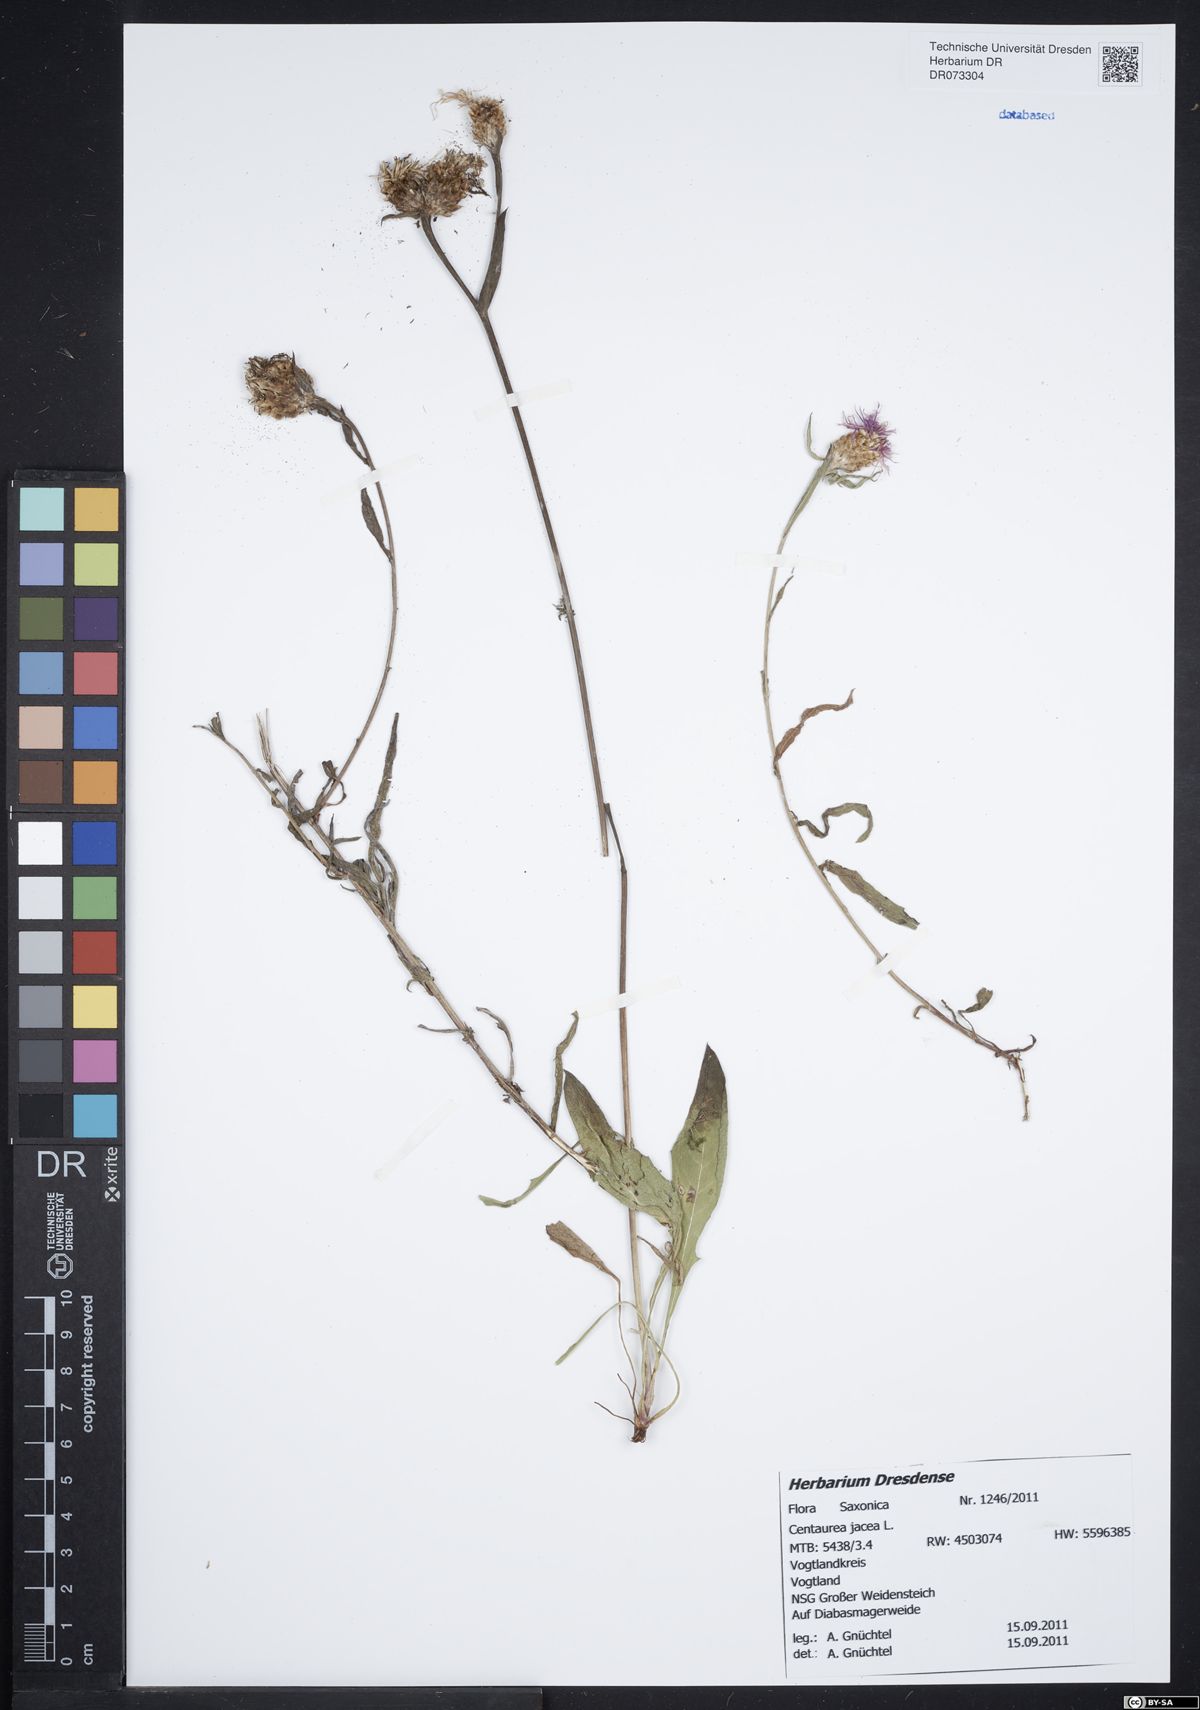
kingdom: Plantae
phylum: Tracheophyta
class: Magnoliopsida
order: Asterales
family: Asteraceae
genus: Centaurea
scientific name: Centaurea jacea
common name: Brown knapweed
